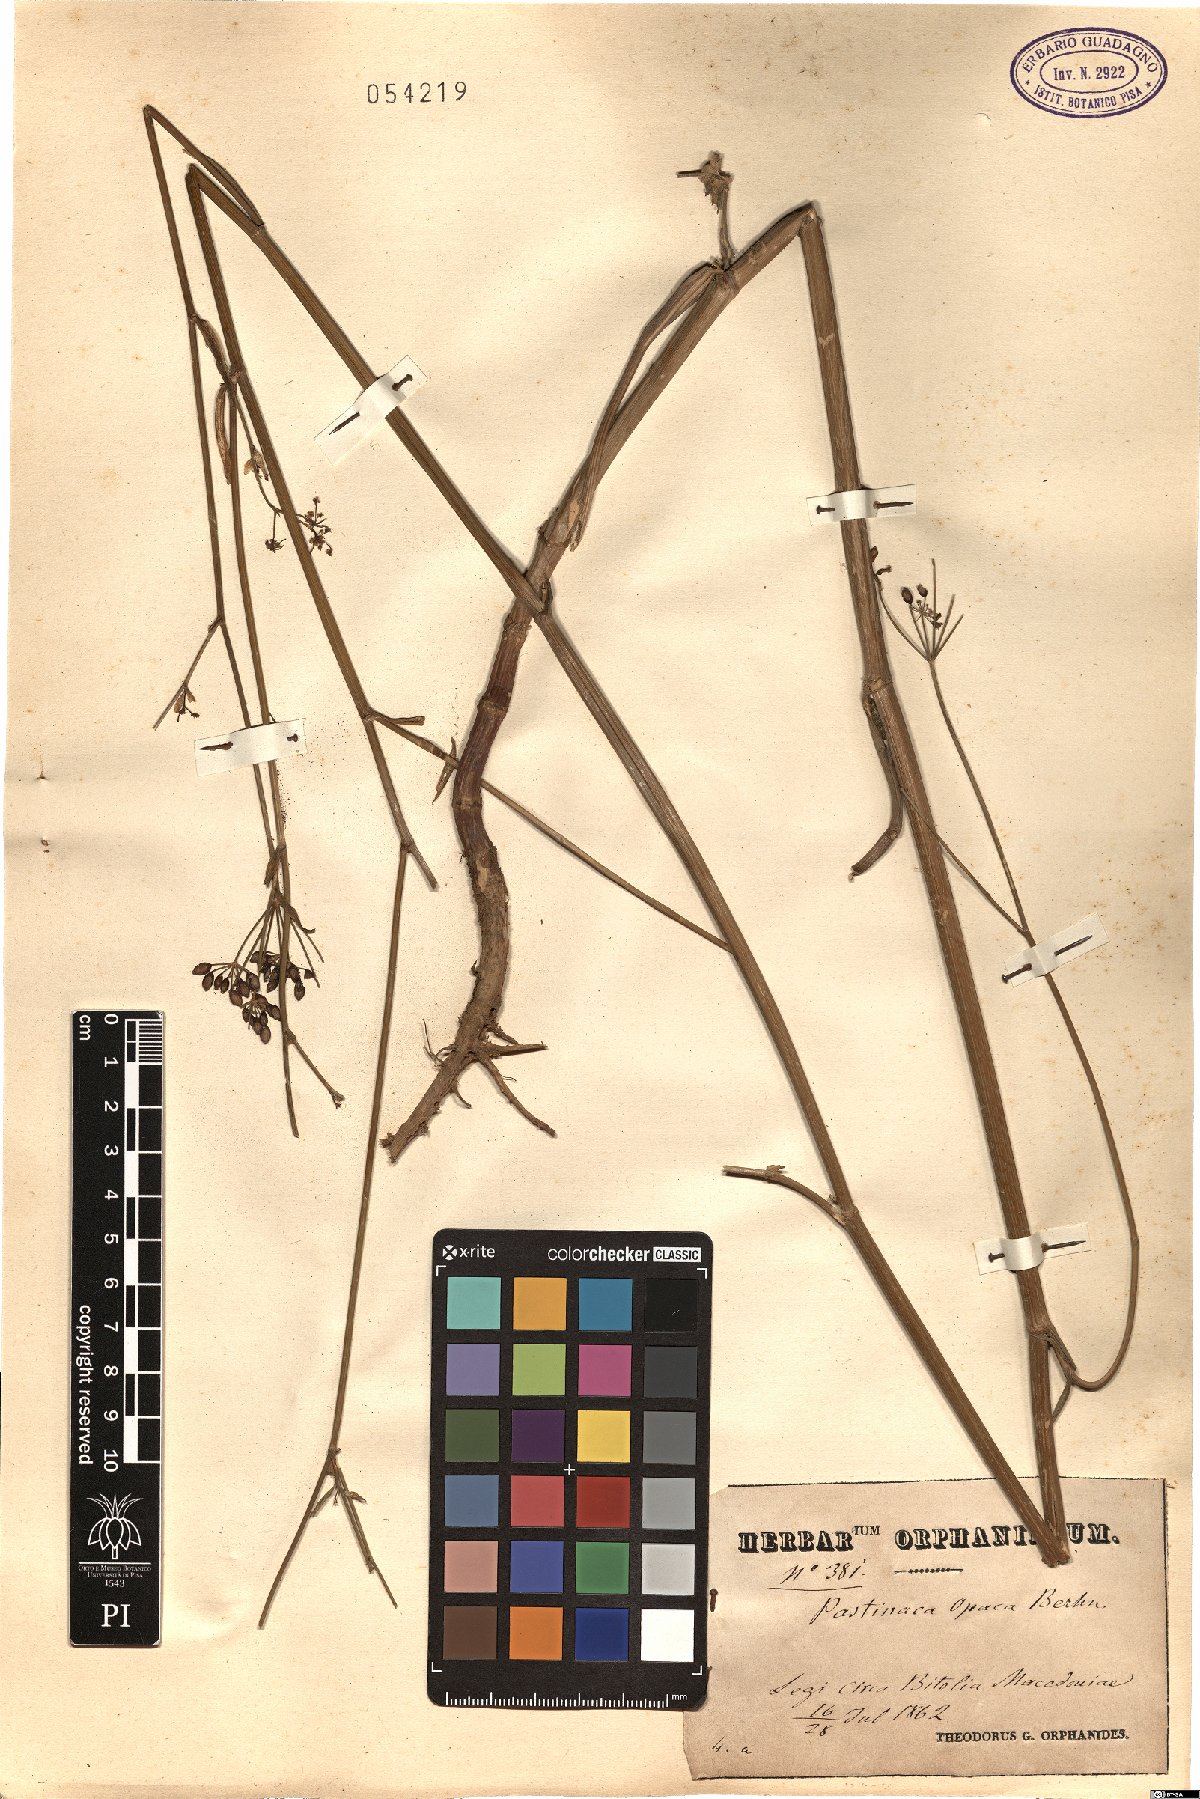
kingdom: Plantae
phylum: Tracheophyta
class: Magnoliopsida
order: Apiales
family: Apiaceae
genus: Pastinaca
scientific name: Pastinaca sativa
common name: Wild parsnip
